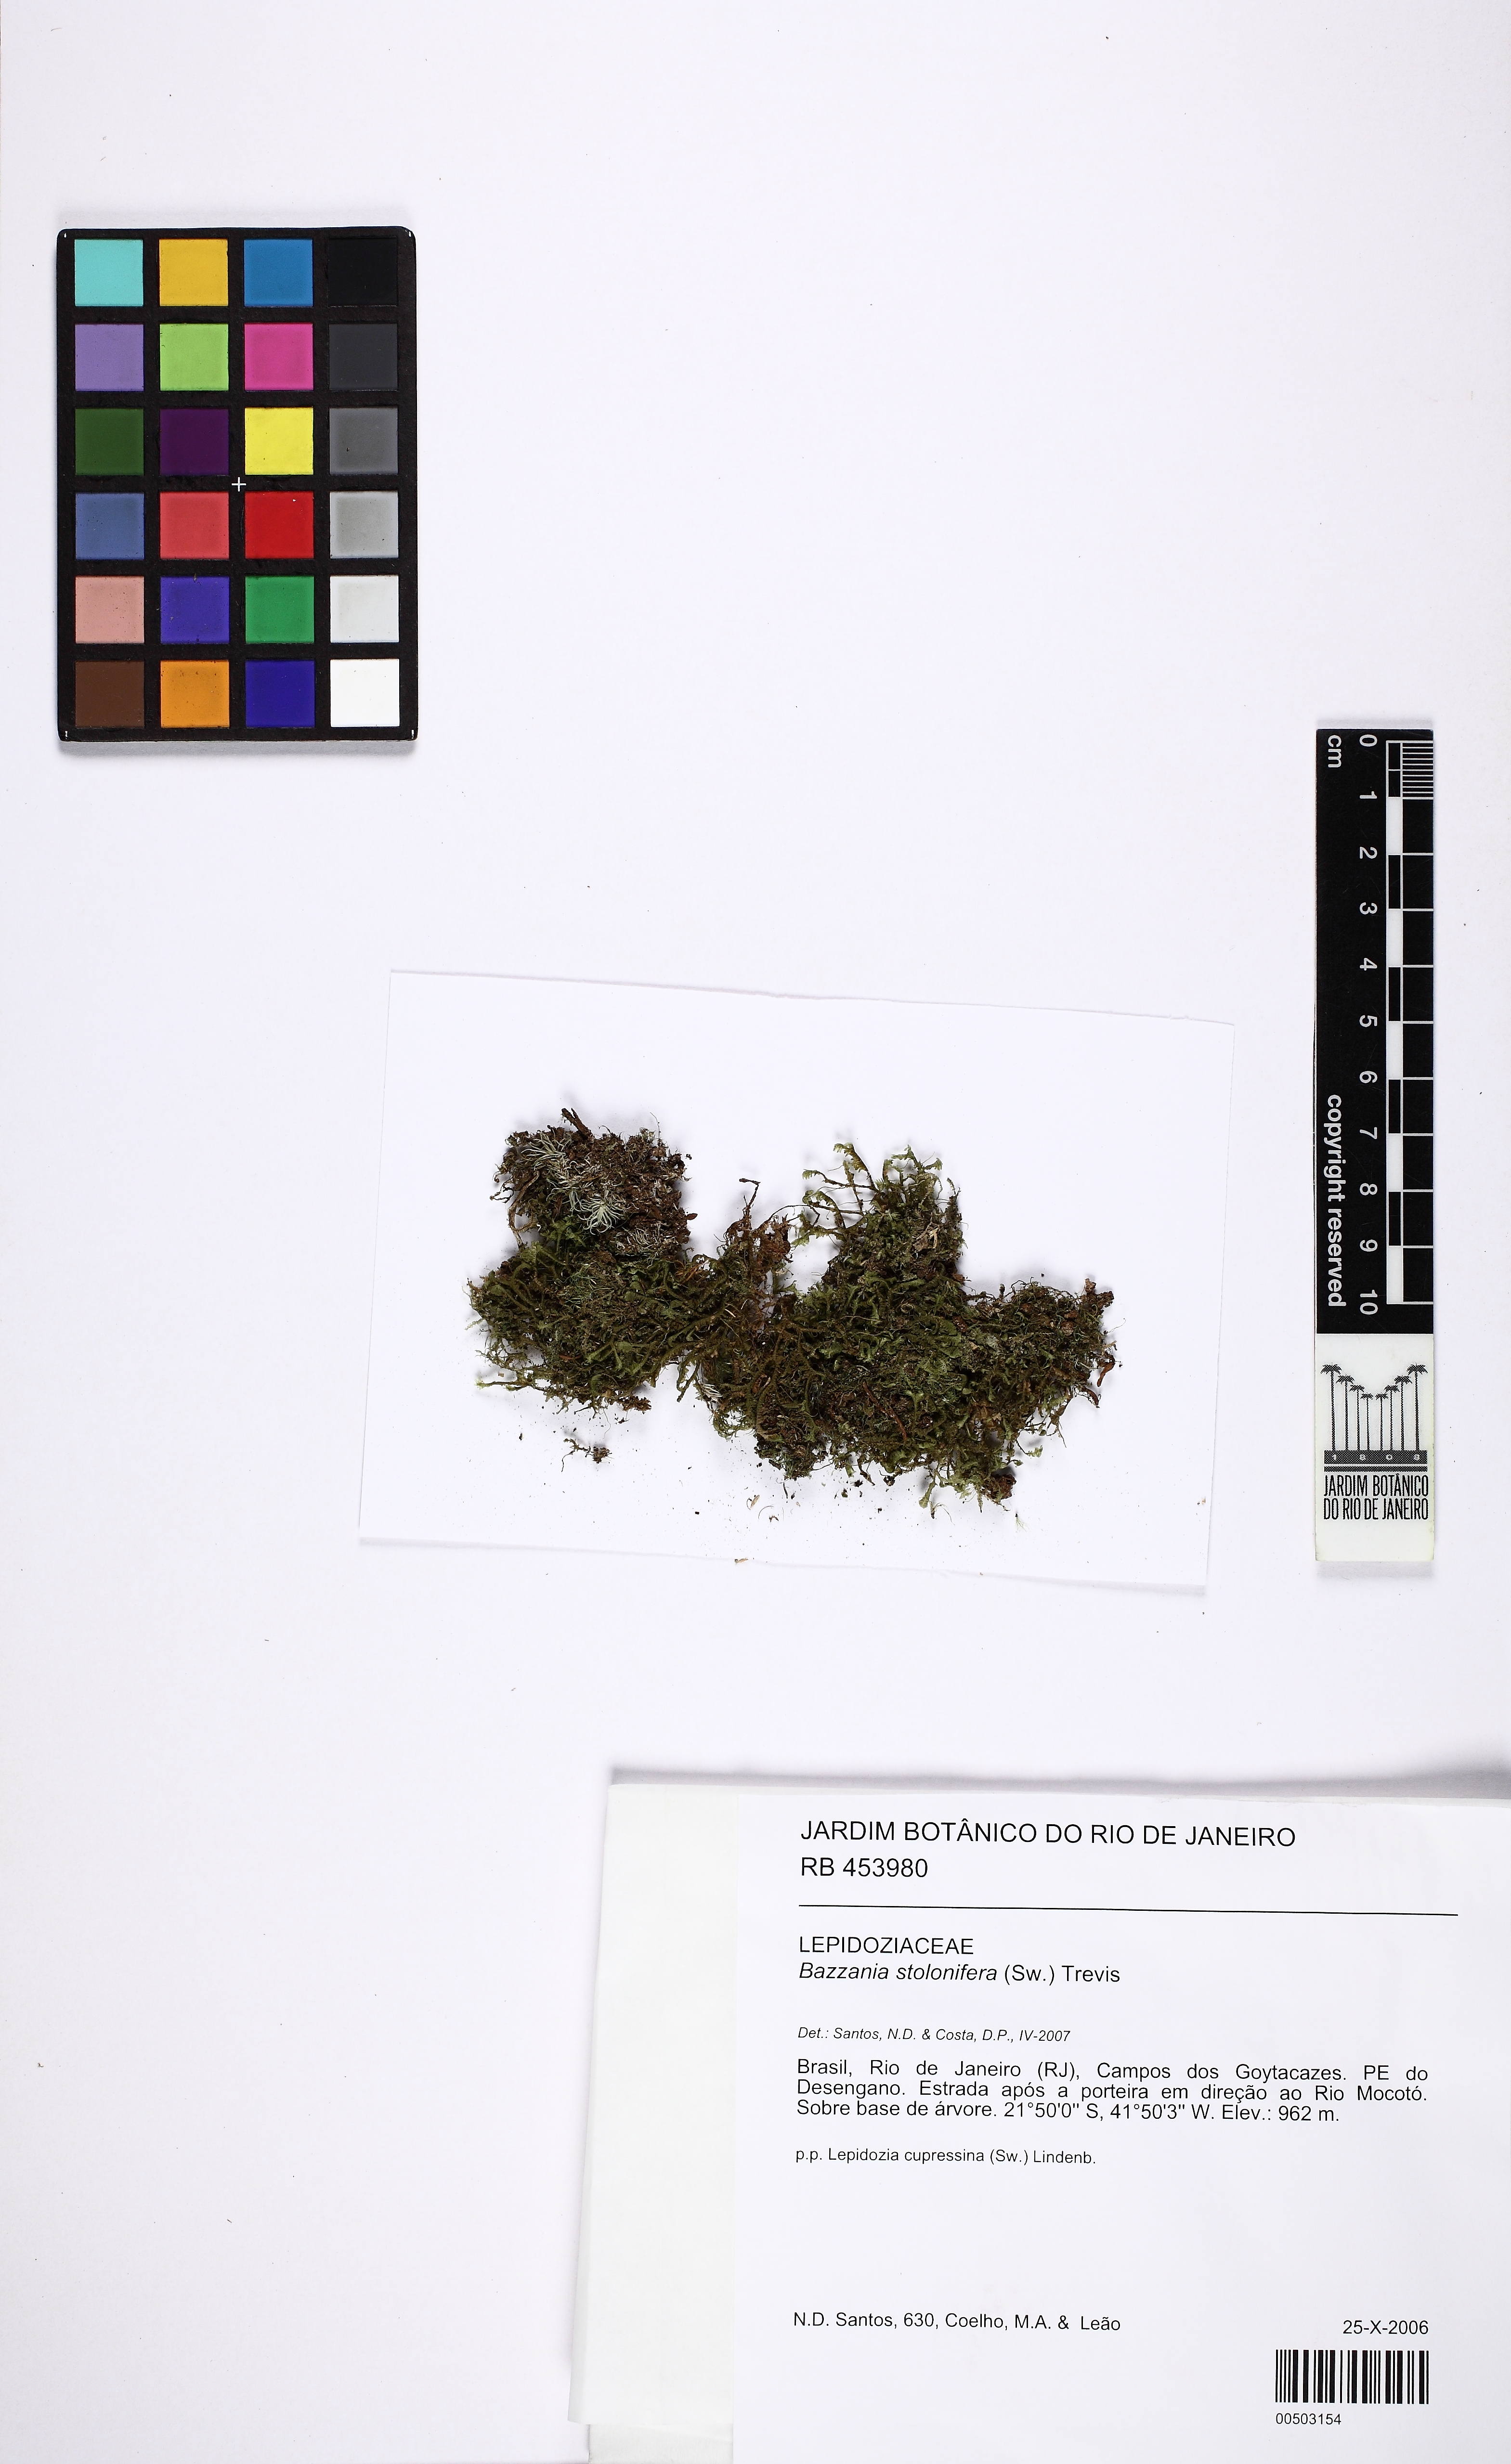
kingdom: Plantae
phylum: Marchantiophyta
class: Jungermanniopsida
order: Jungermanniales
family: Lepidoziaceae
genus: Bazzania
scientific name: Bazzania stolonifera
